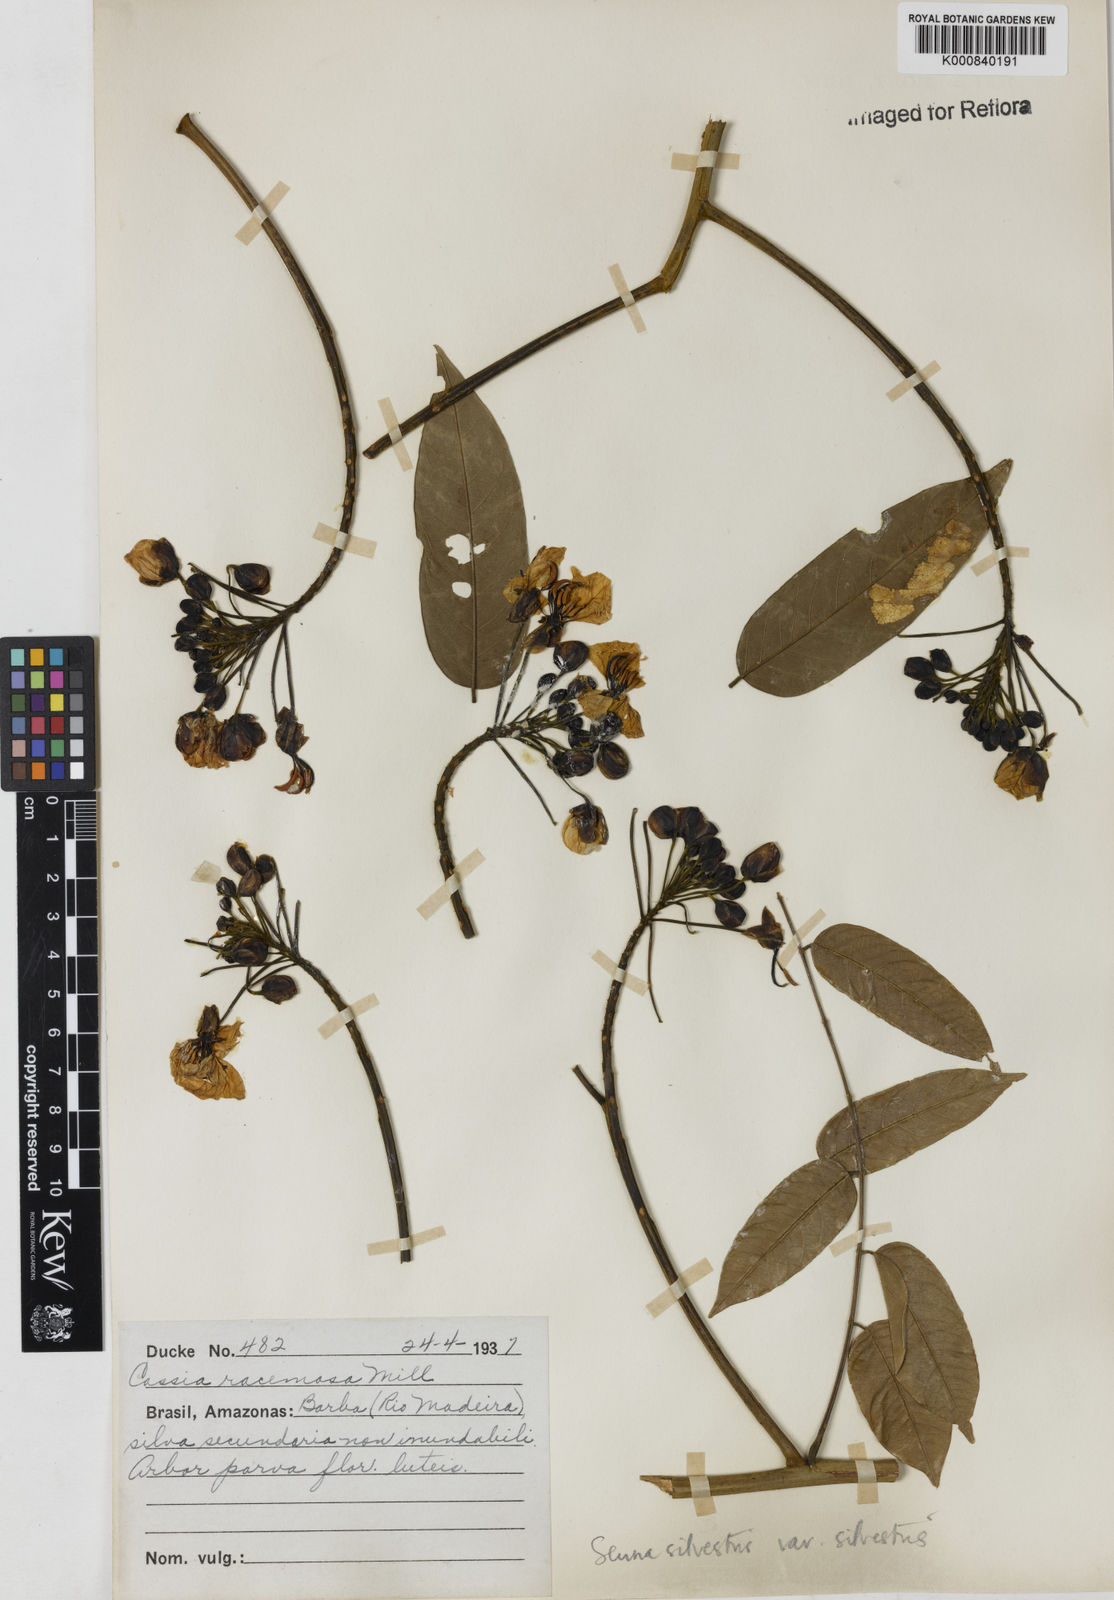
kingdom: Plantae
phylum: Tracheophyta
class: Magnoliopsida
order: Fabales
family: Fabaceae
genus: Senna
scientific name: Senna silvestris
